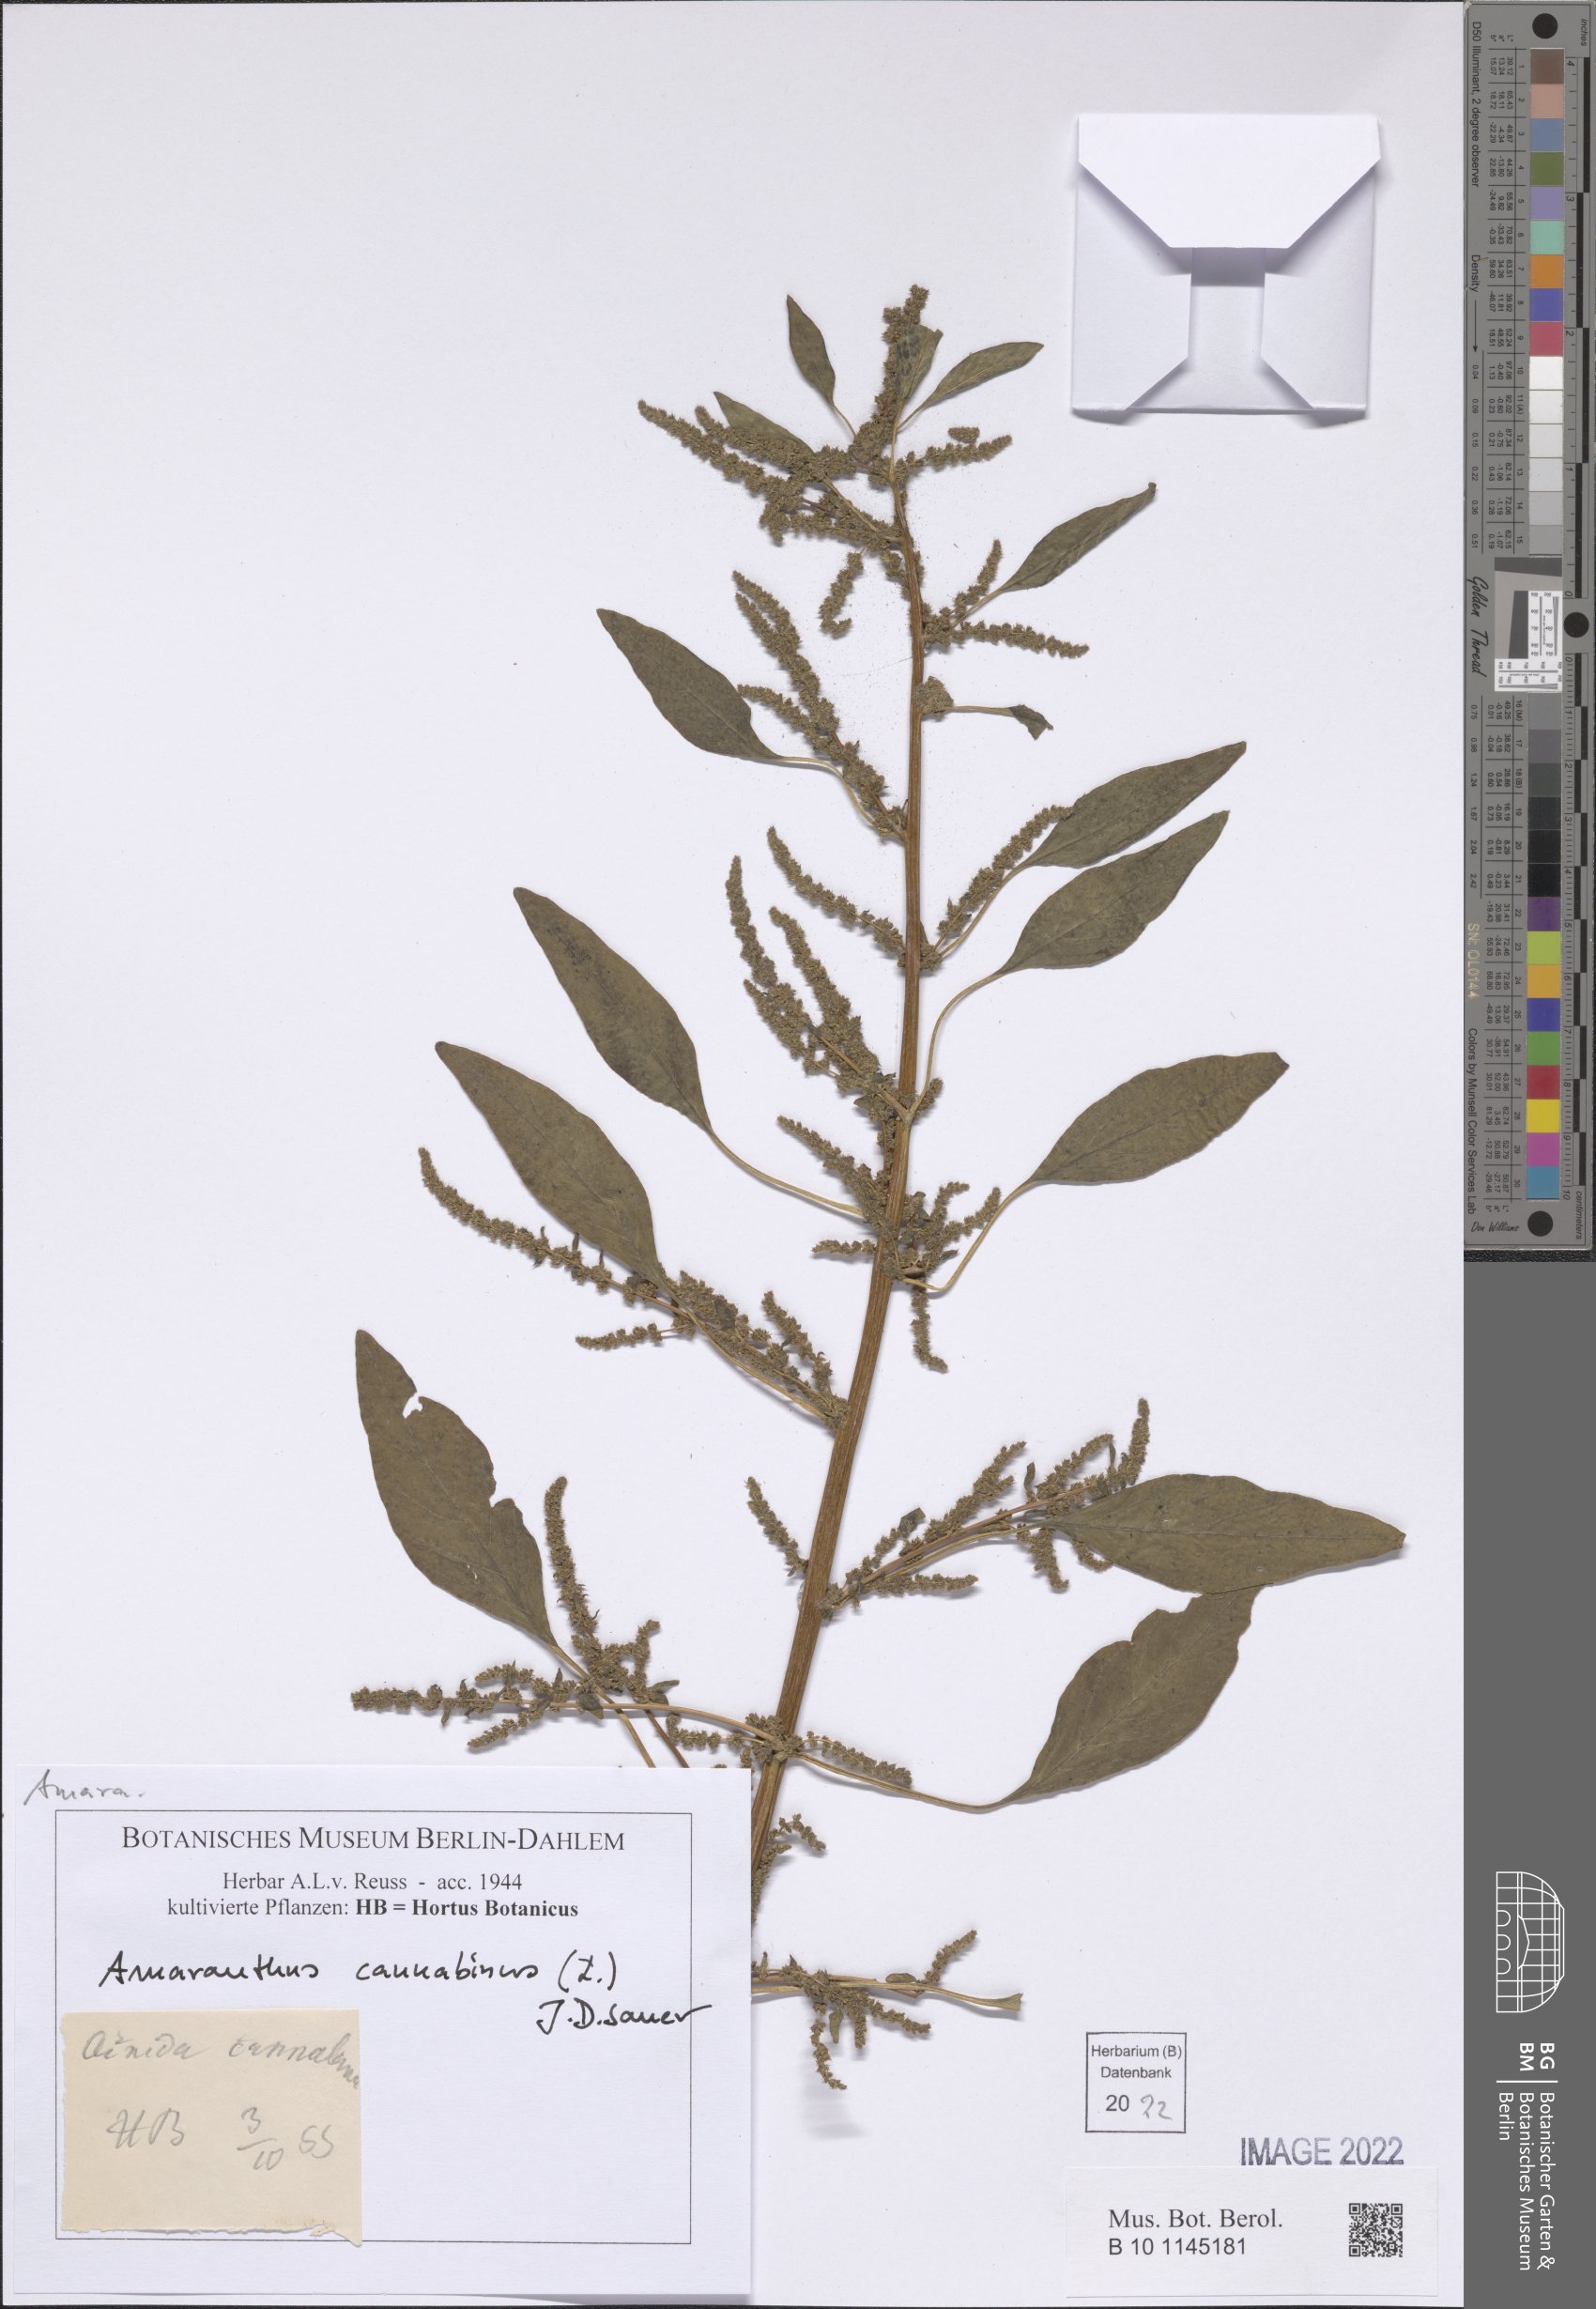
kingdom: Plantae
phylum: Tracheophyta
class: Magnoliopsida
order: Caryophyllales
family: Amaranthaceae
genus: Amaranthus
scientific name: Amaranthus cannabinus
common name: Salt-marsh water-hemp
